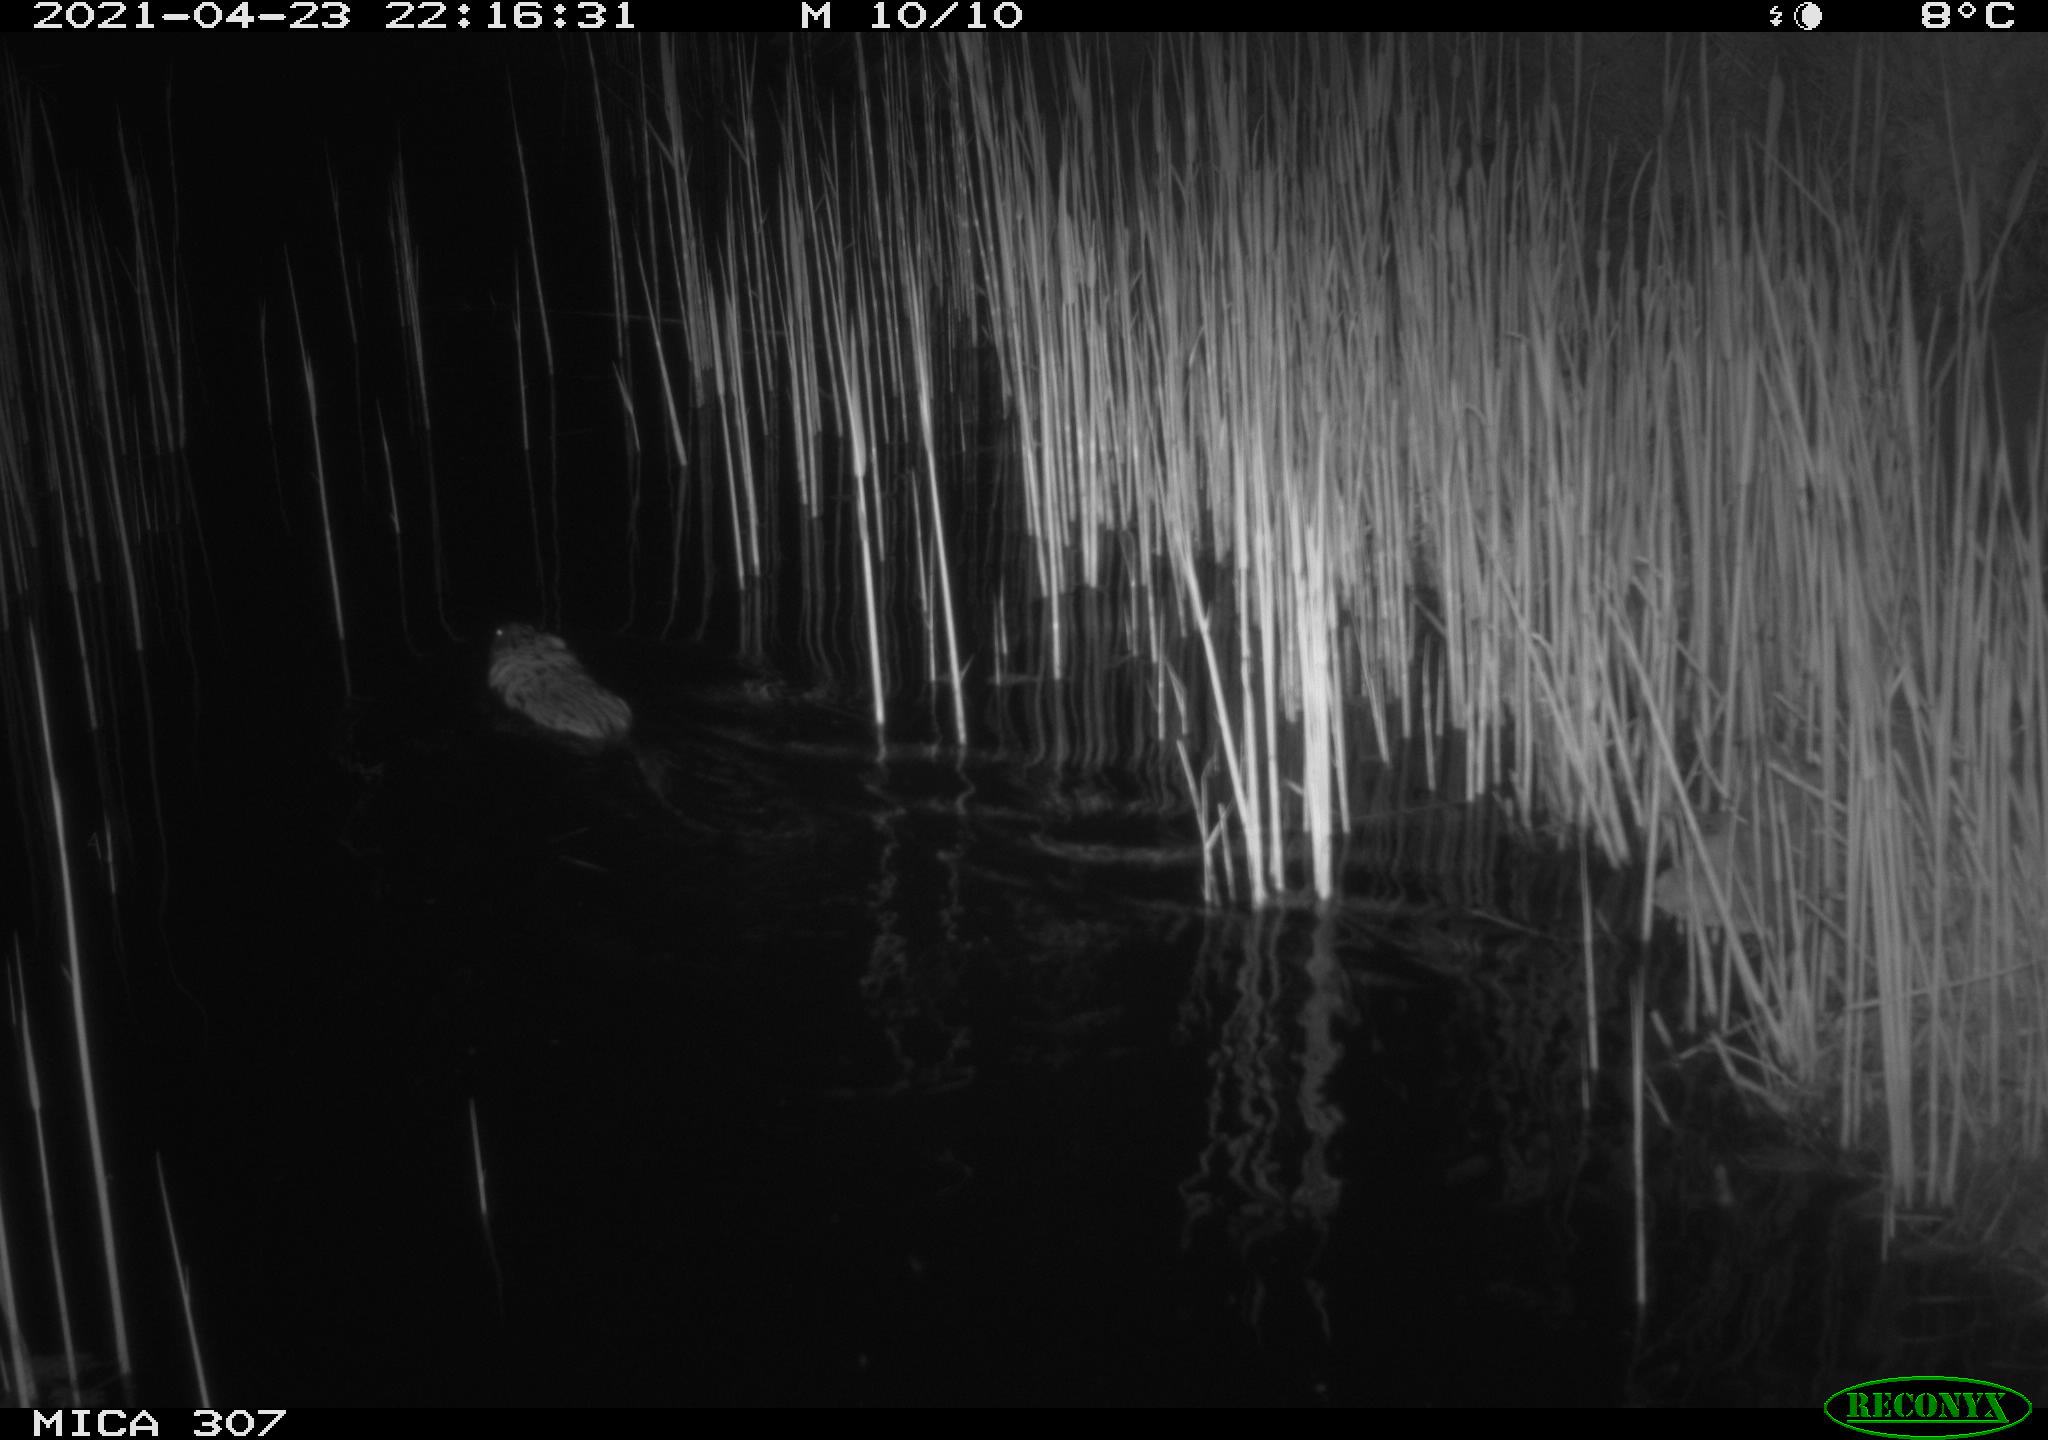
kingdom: Animalia
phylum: Chordata
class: Mammalia
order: Rodentia
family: Cricetidae
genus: Ondatra
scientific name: Ondatra zibethicus
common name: Muskrat
